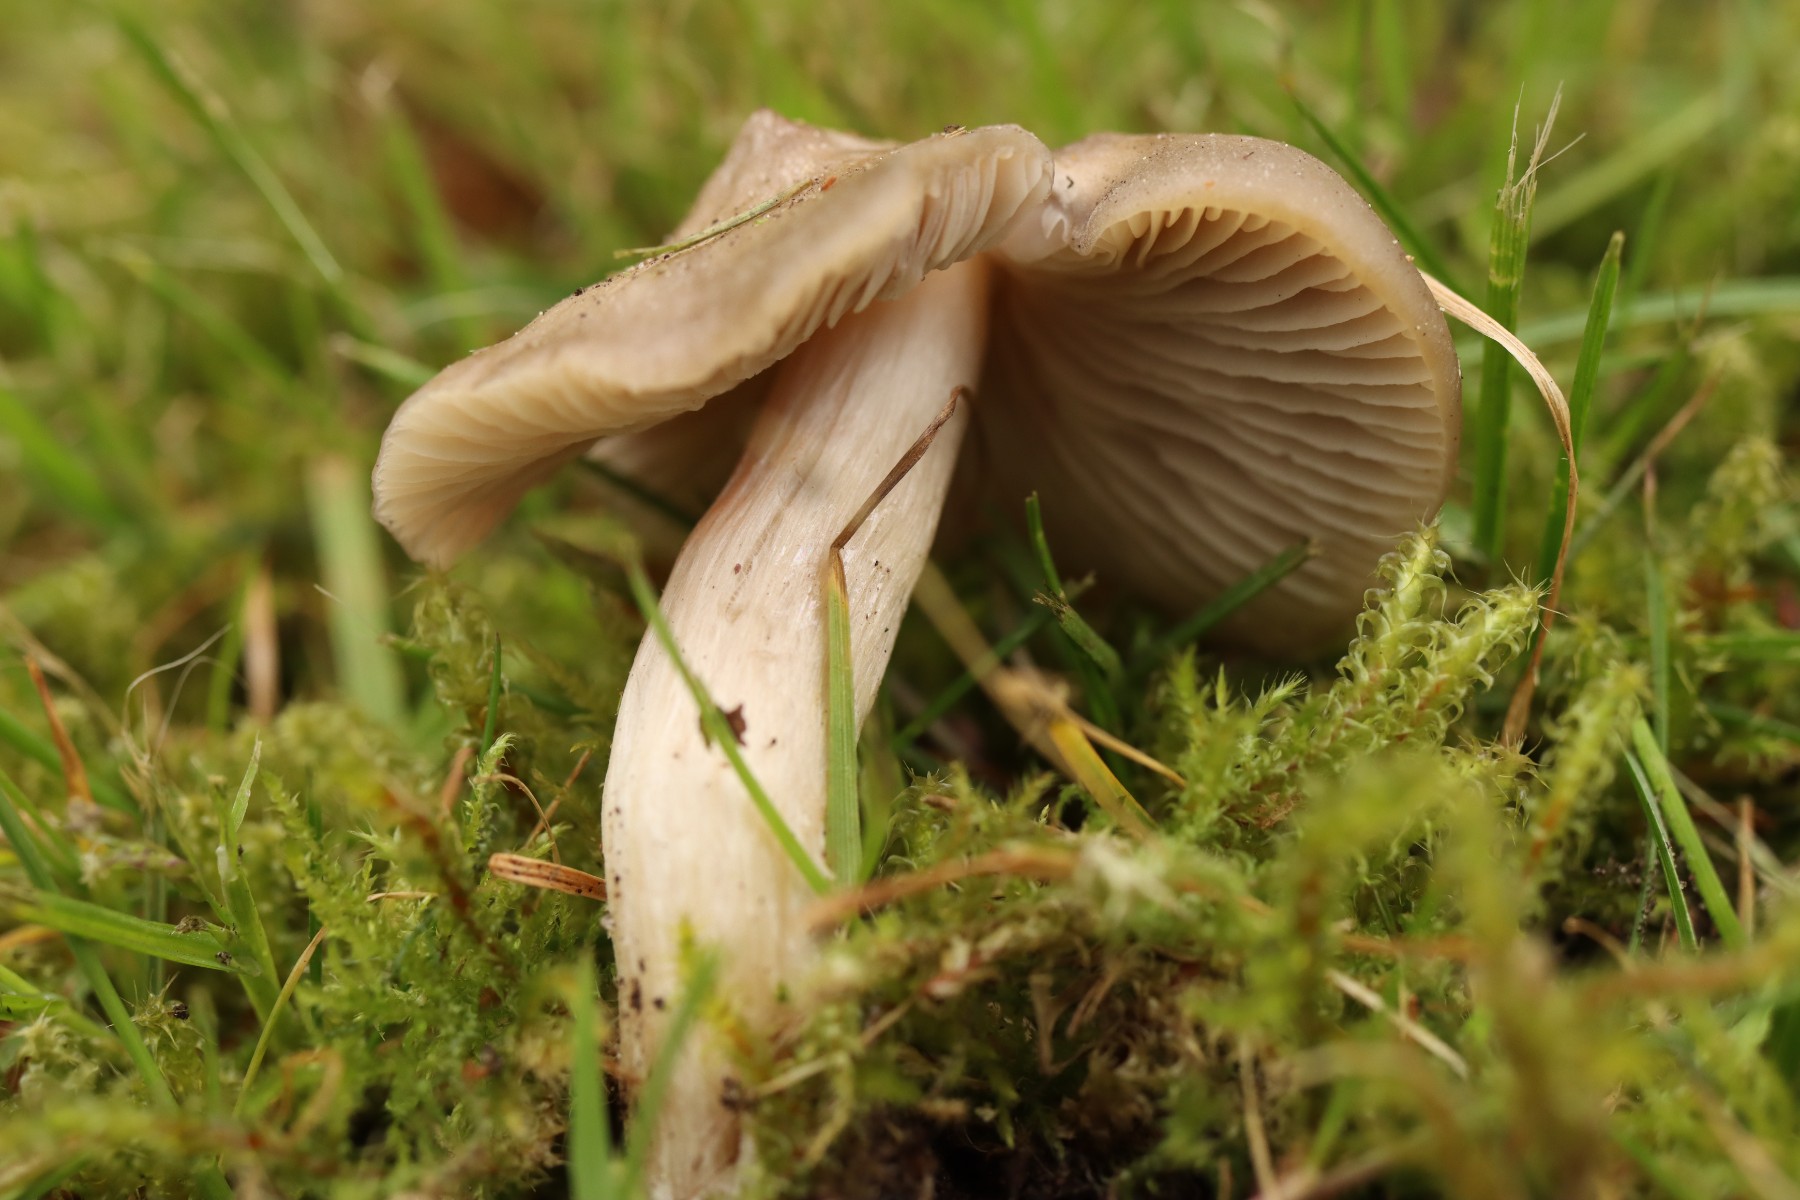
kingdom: Fungi
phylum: Basidiomycota
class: Agaricomycetes
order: Agaricales
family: Entolomataceae
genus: Entoloma
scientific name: Entoloma clypeatum
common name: flammet rødblad
